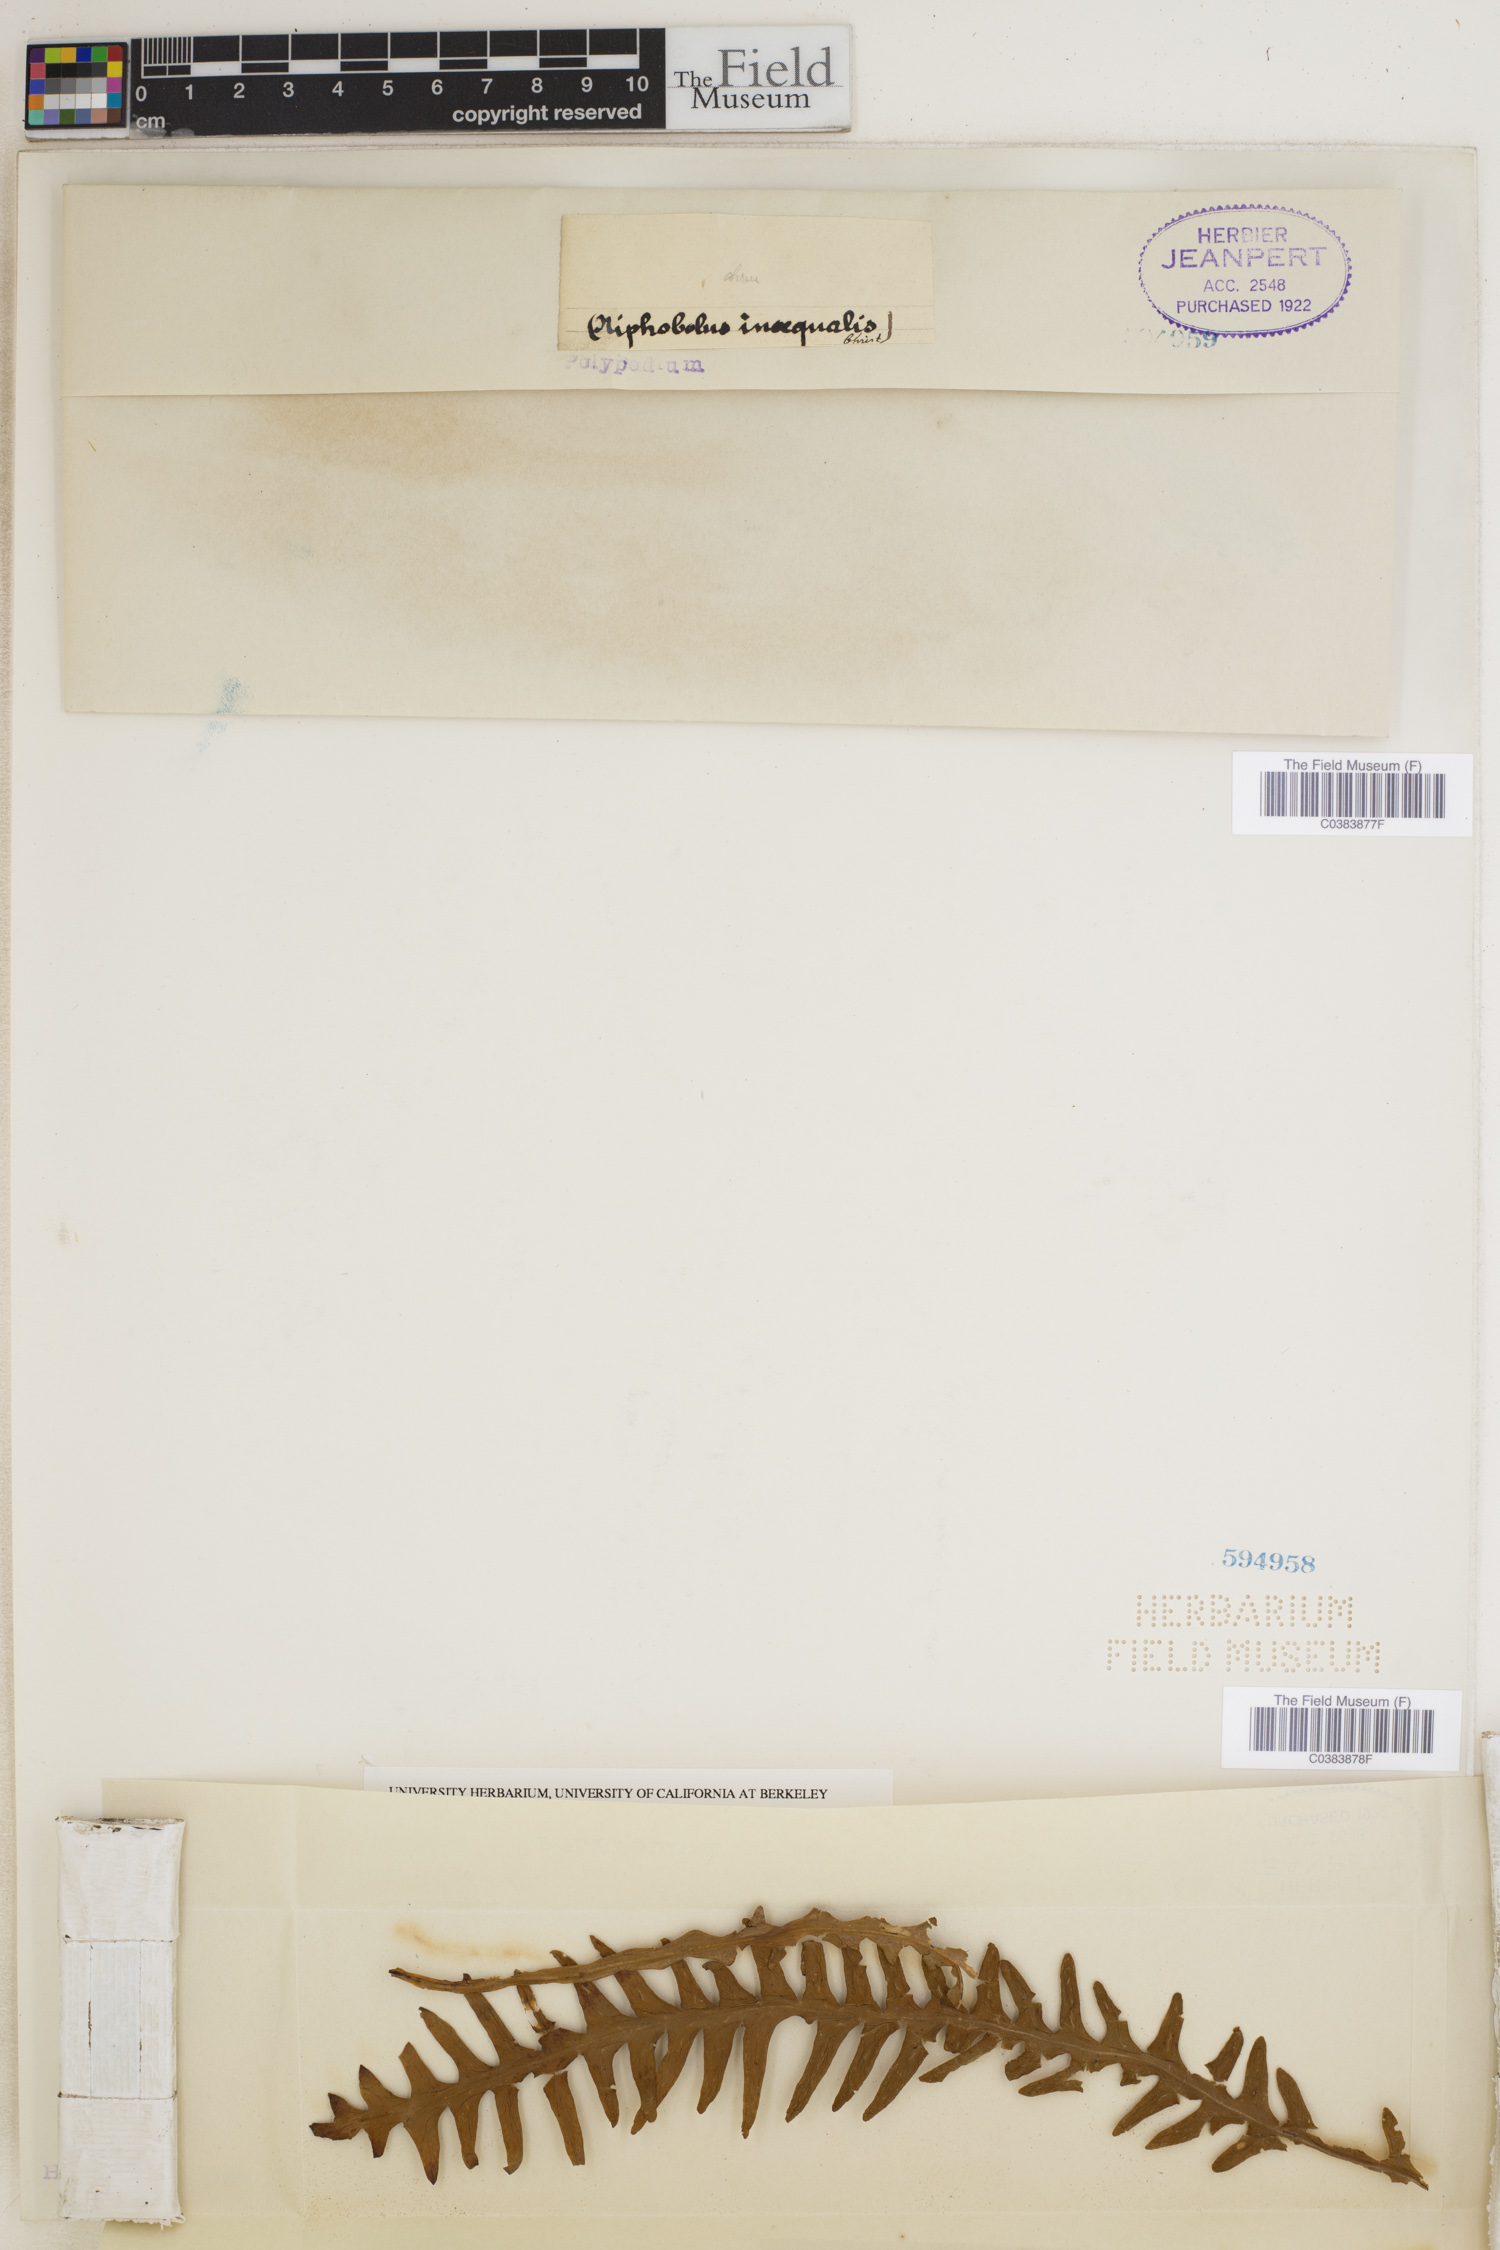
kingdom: Plantae
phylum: Tracheophyta
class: Polypodiopsida
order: Polypodiales
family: Polypodiaceae
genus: Ceradenia
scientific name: Ceradenia curvata
